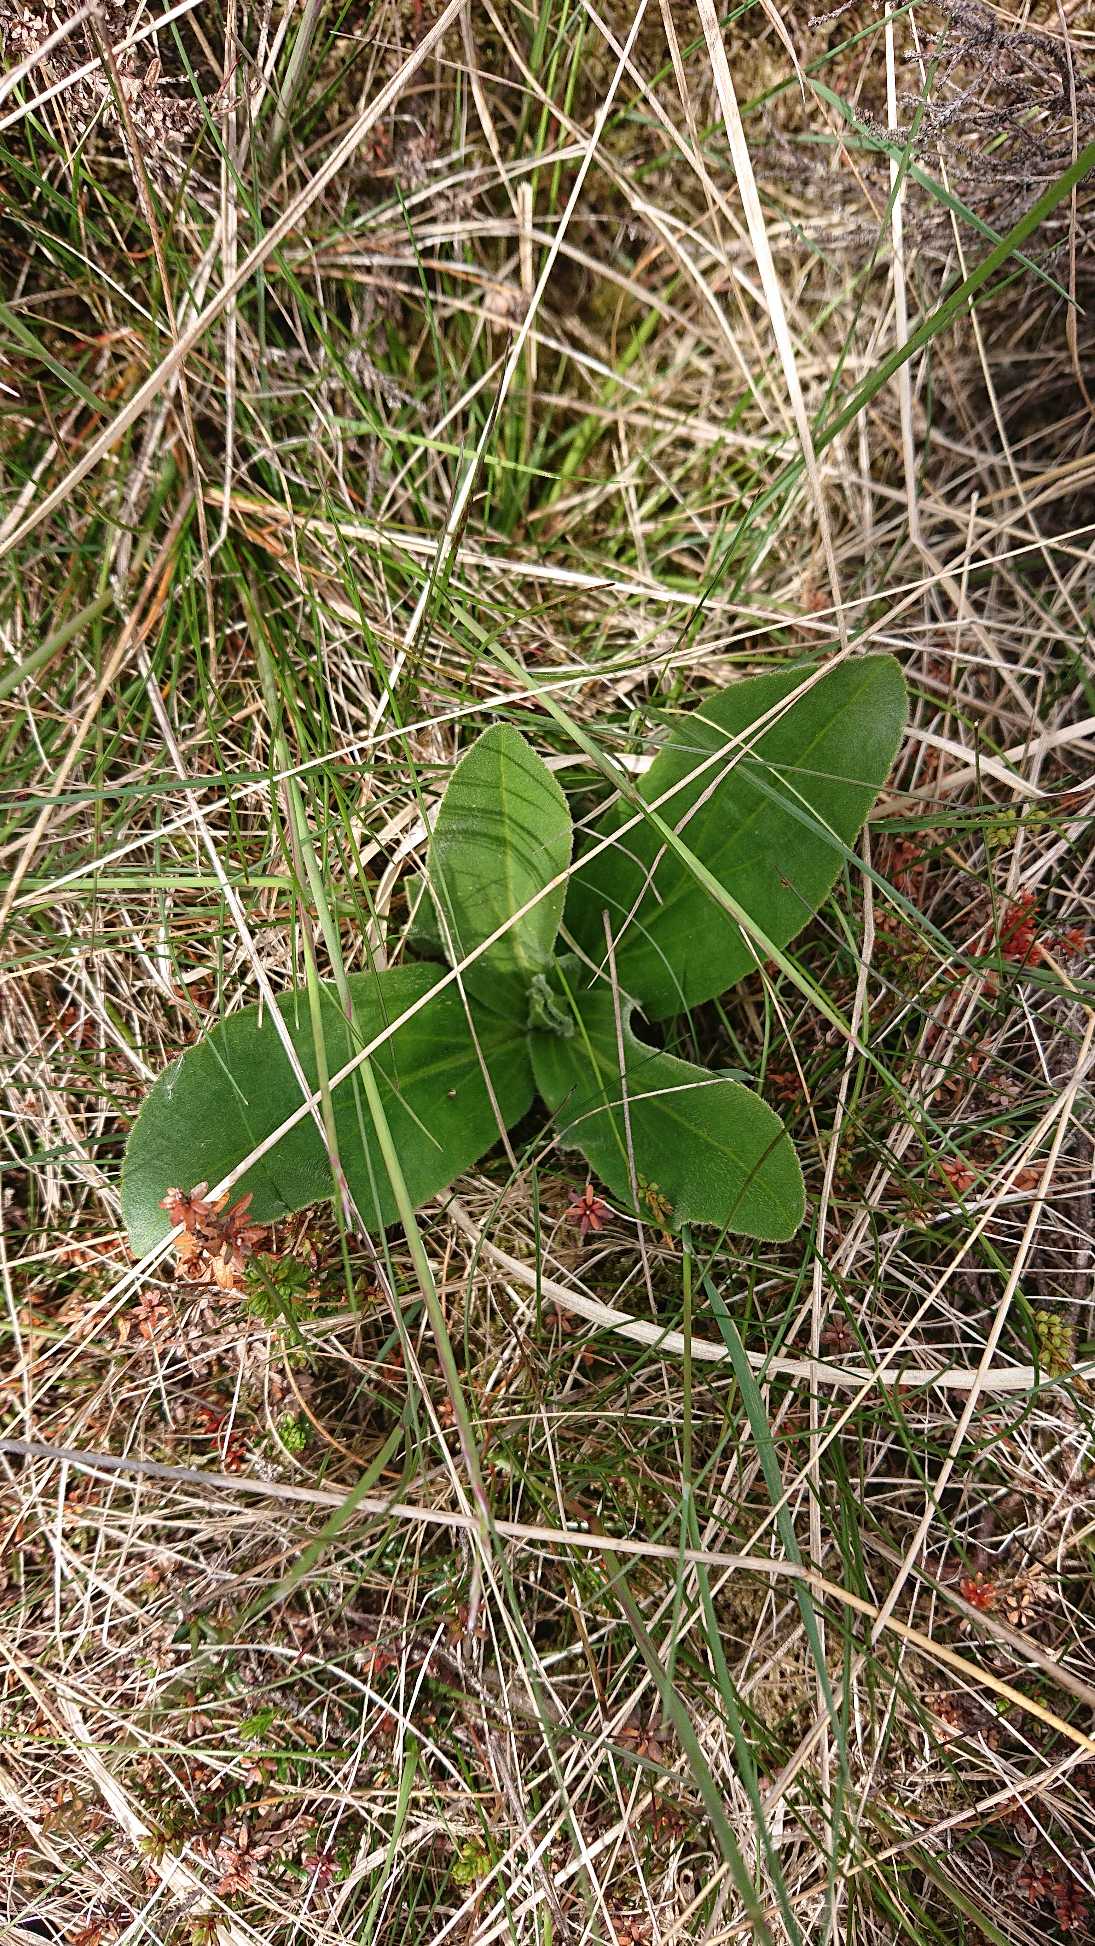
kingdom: Plantae
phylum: Tracheophyta
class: Magnoliopsida
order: Asterales
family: Asteraceae
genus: Arnica
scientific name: Arnica montana
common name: Guldblomme
